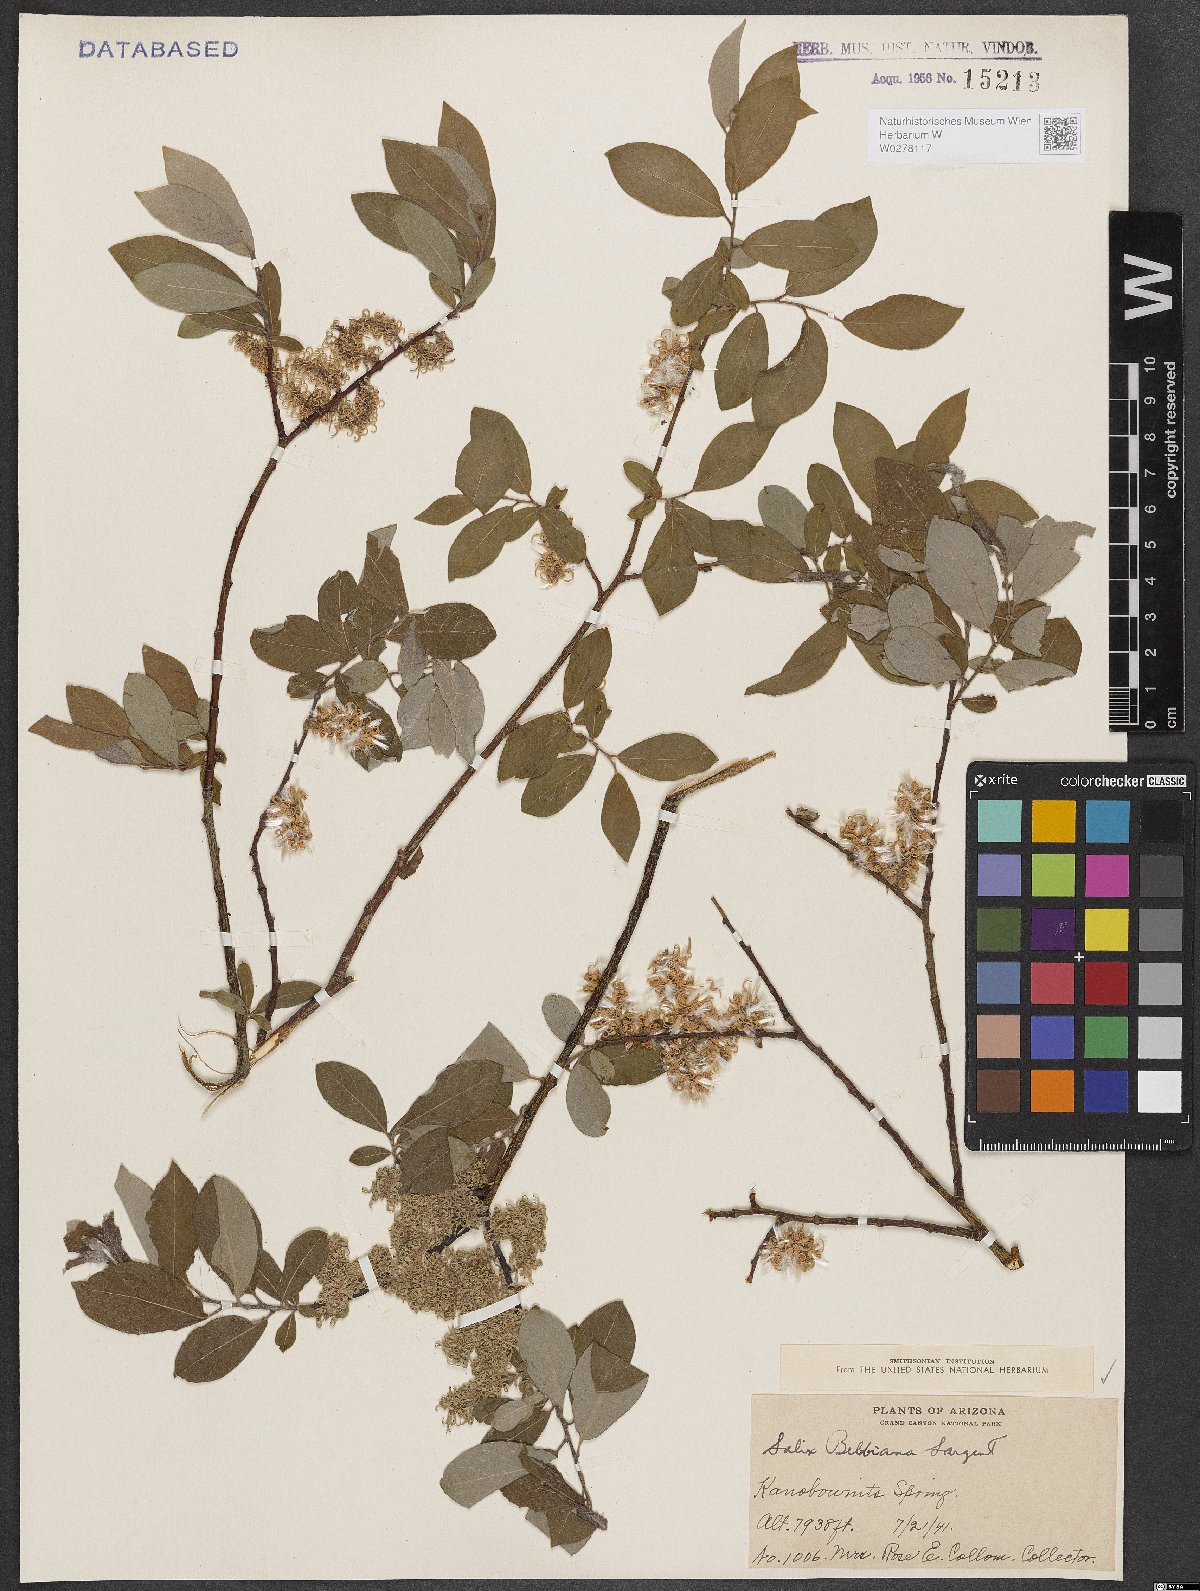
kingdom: Plantae
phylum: Tracheophyta
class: Magnoliopsida
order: Malpighiales
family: Salicaceae
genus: Salix
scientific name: Salix bebbiana
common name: Bebb's willow
